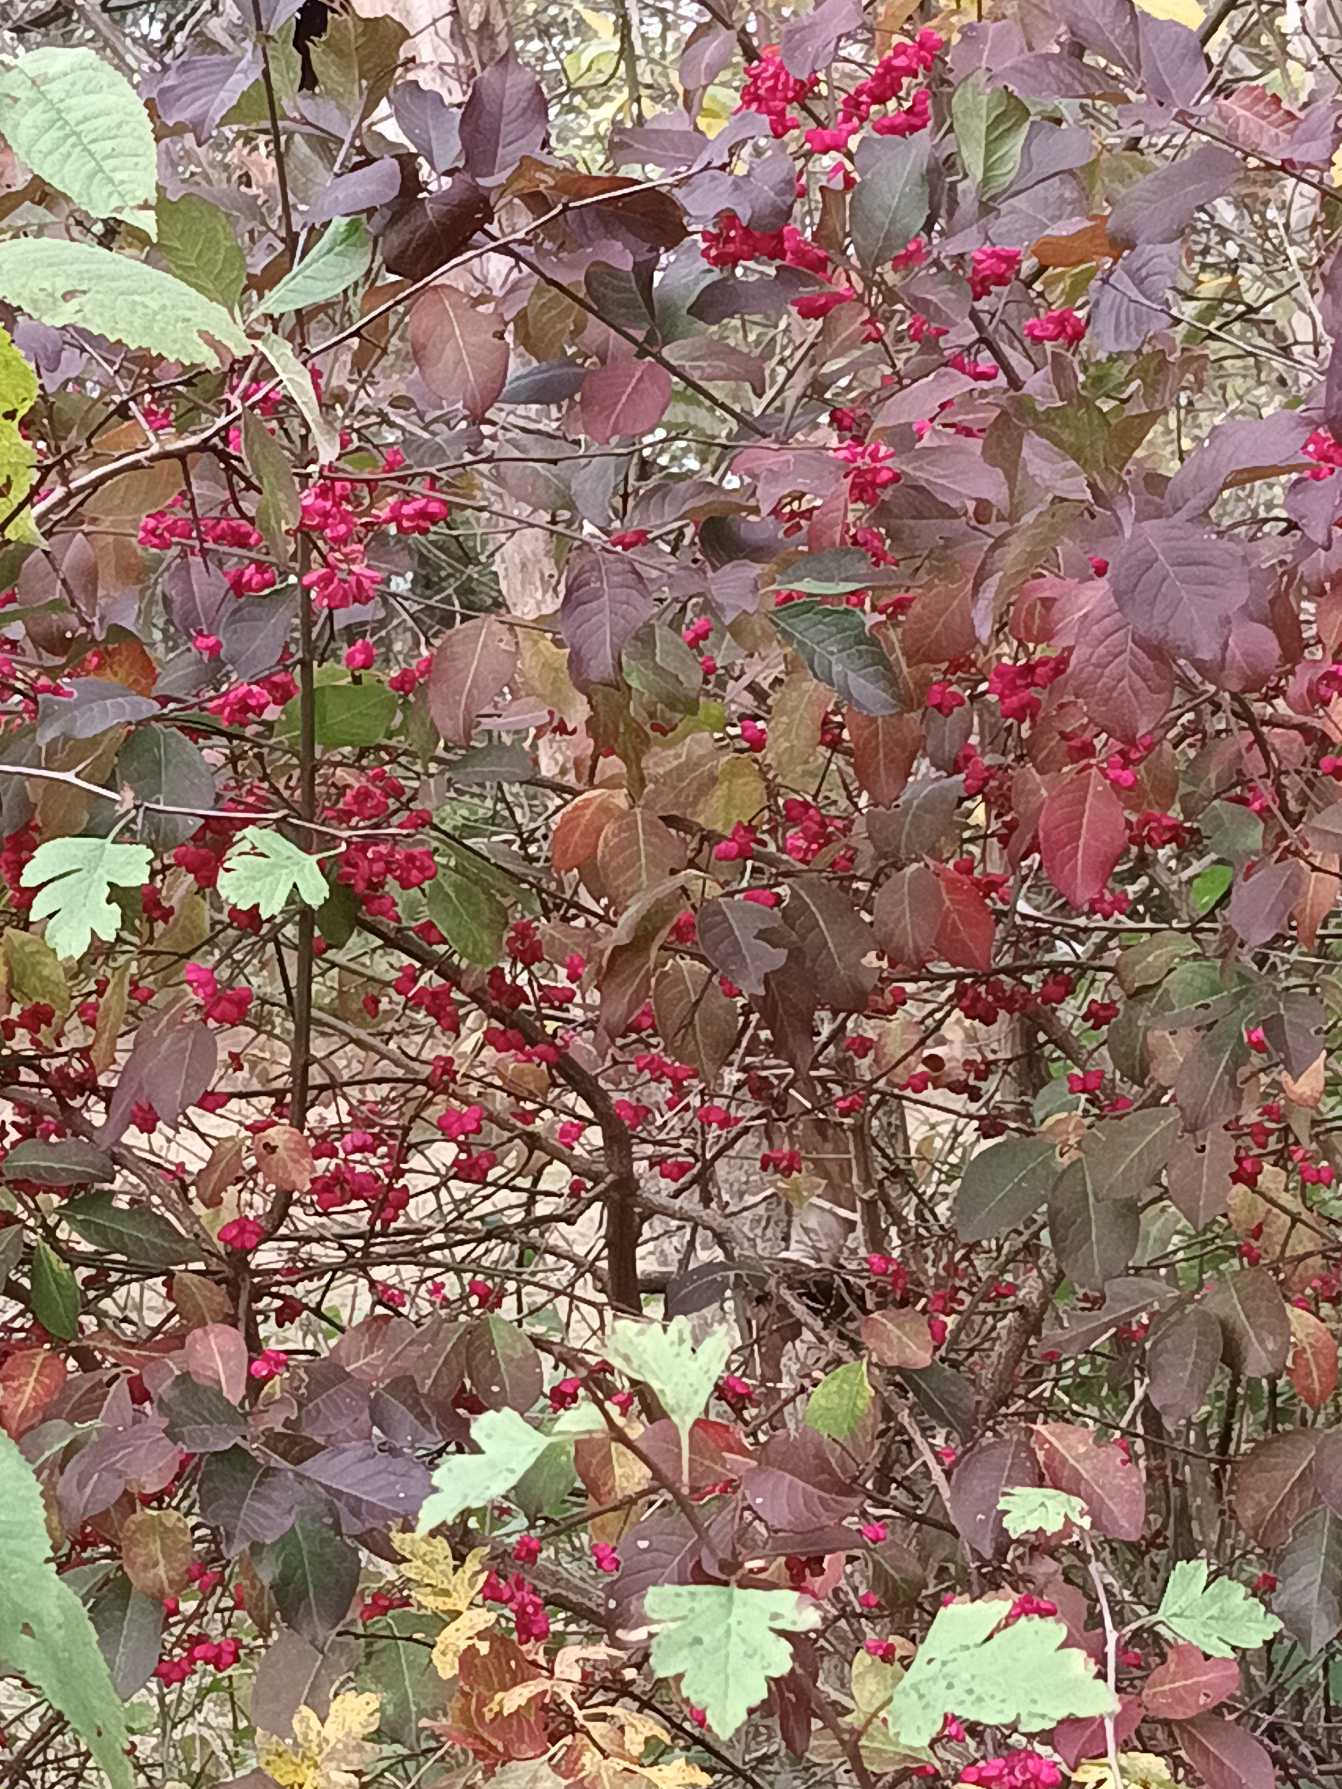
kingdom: Plantae
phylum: Tracheophyta
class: Magnoliopsida
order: Celastrales
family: Celastraceae
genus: Euonymus
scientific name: Euonymus europaeus
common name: Benved
